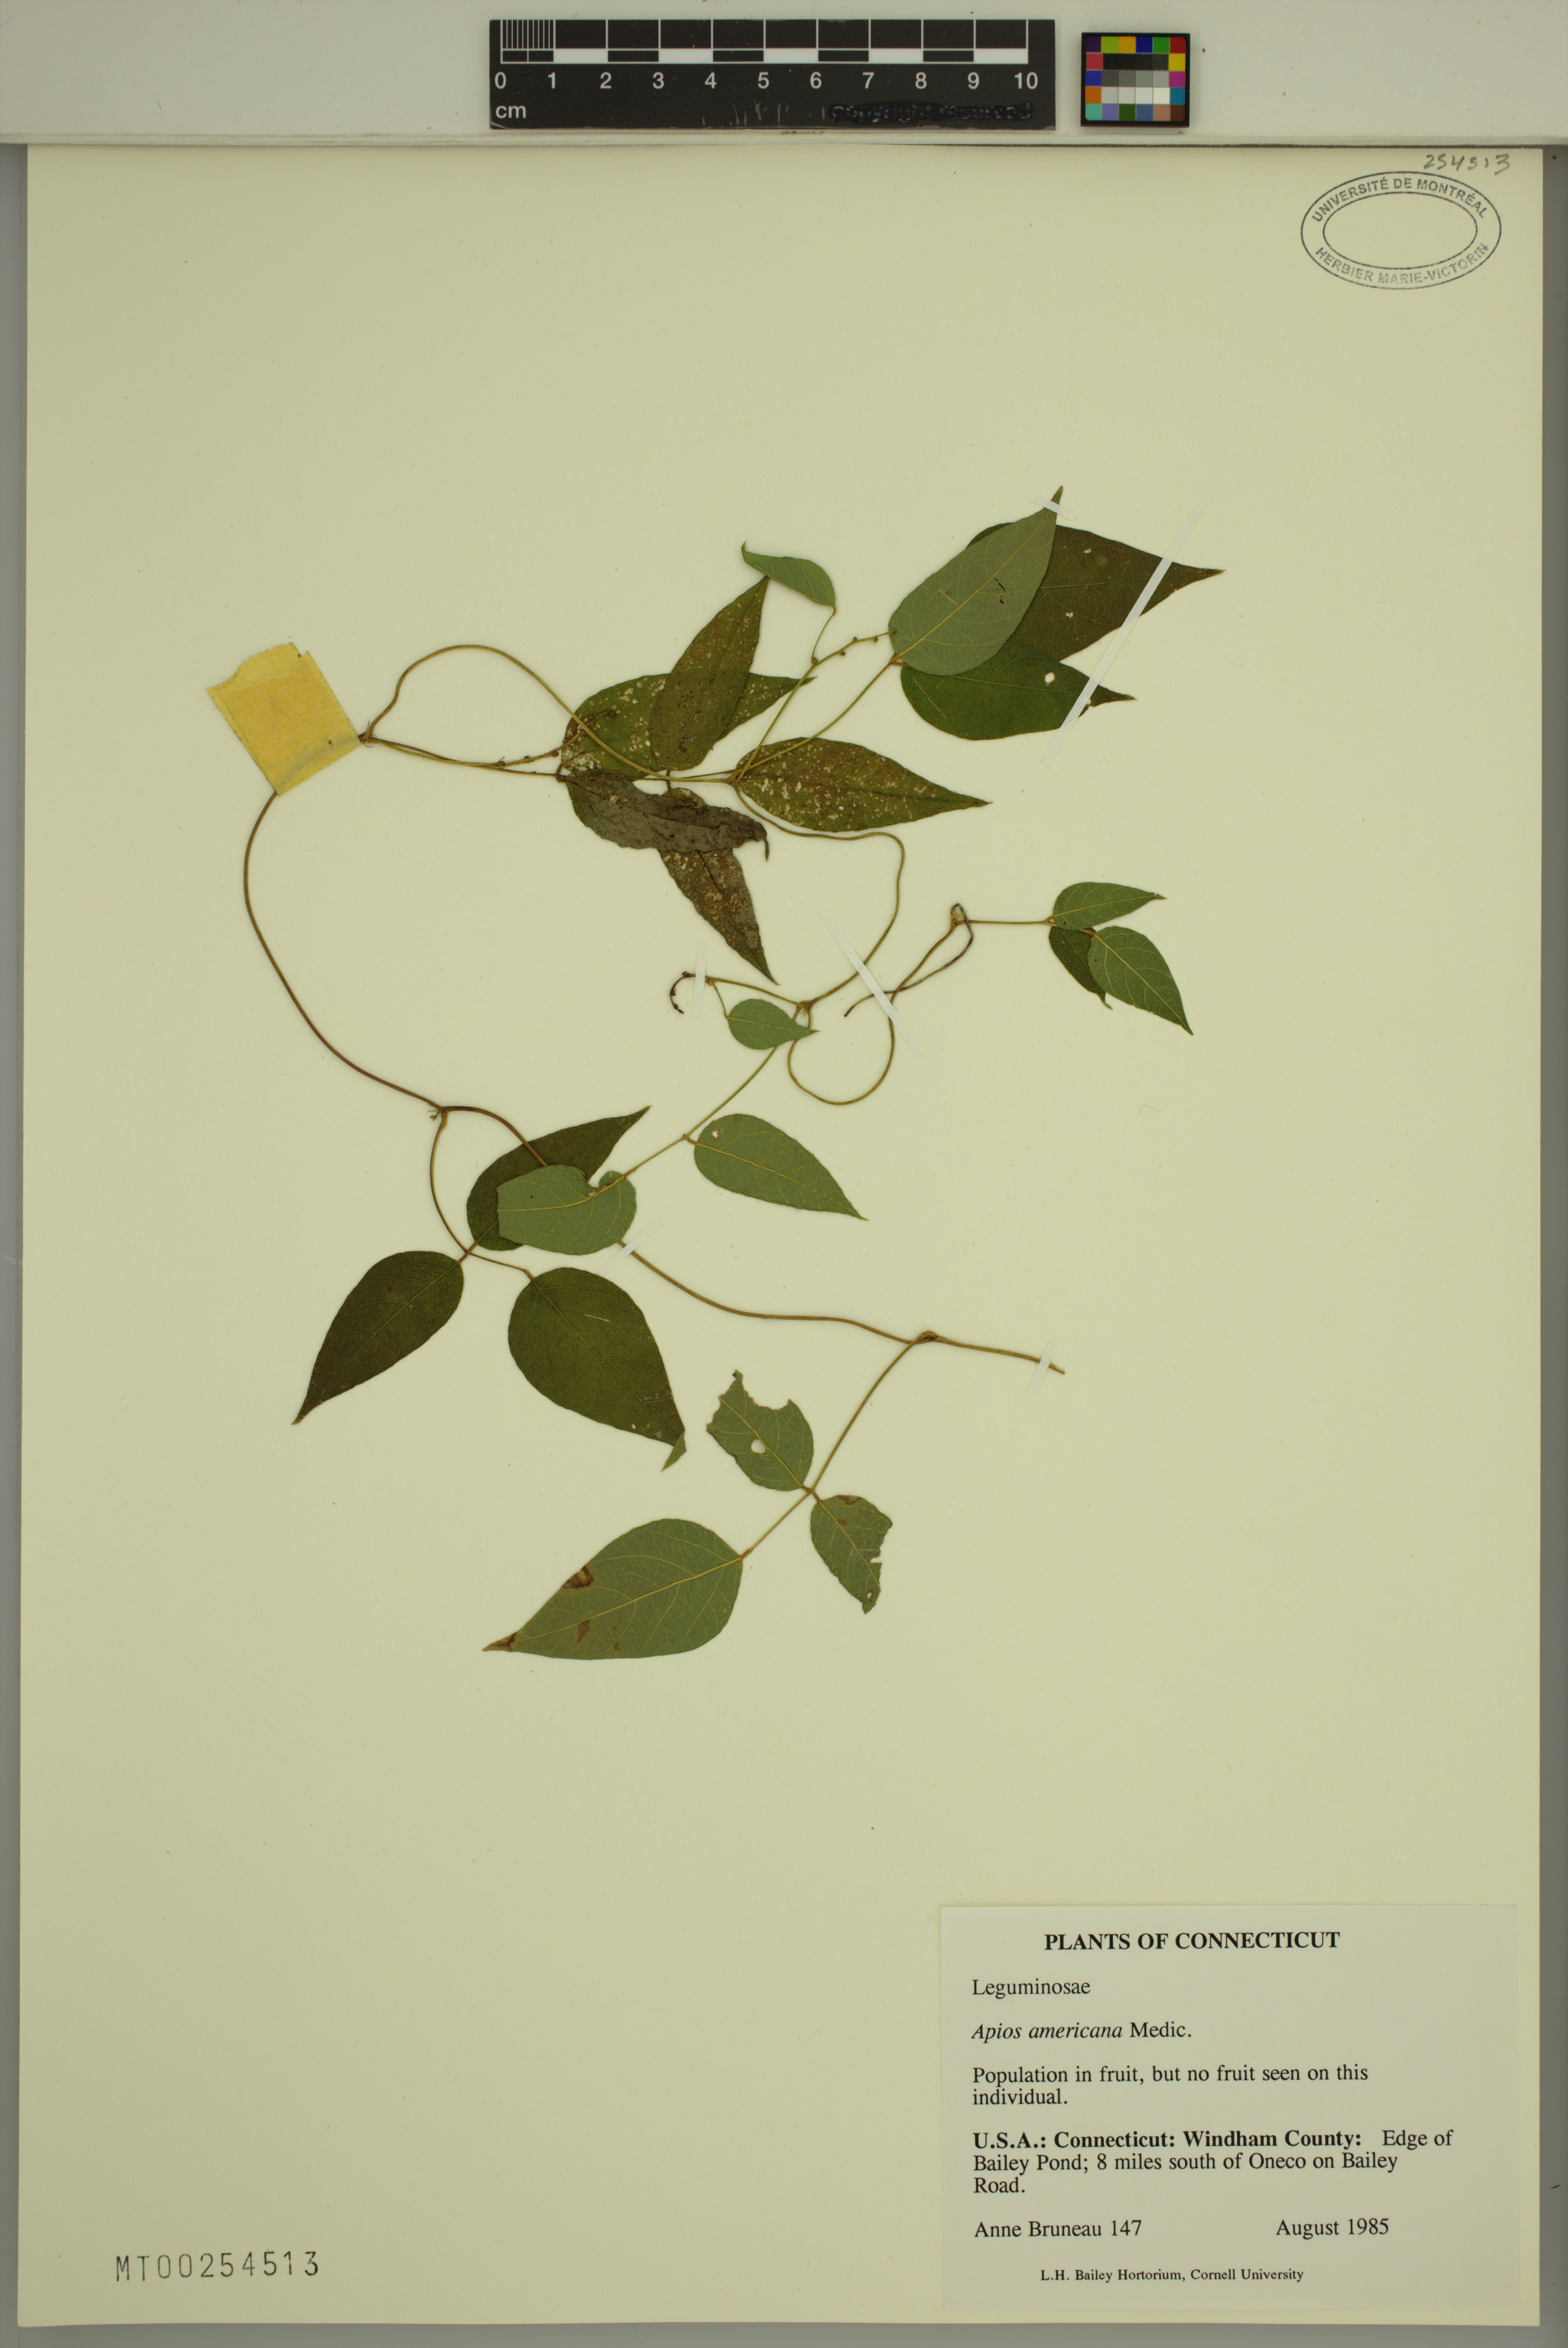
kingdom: Plantae
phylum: Tracheophyta
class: Magnoliopsida
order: Fabales
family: Fabaceae
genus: Apios
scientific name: Apios americana
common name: American potato-bean
